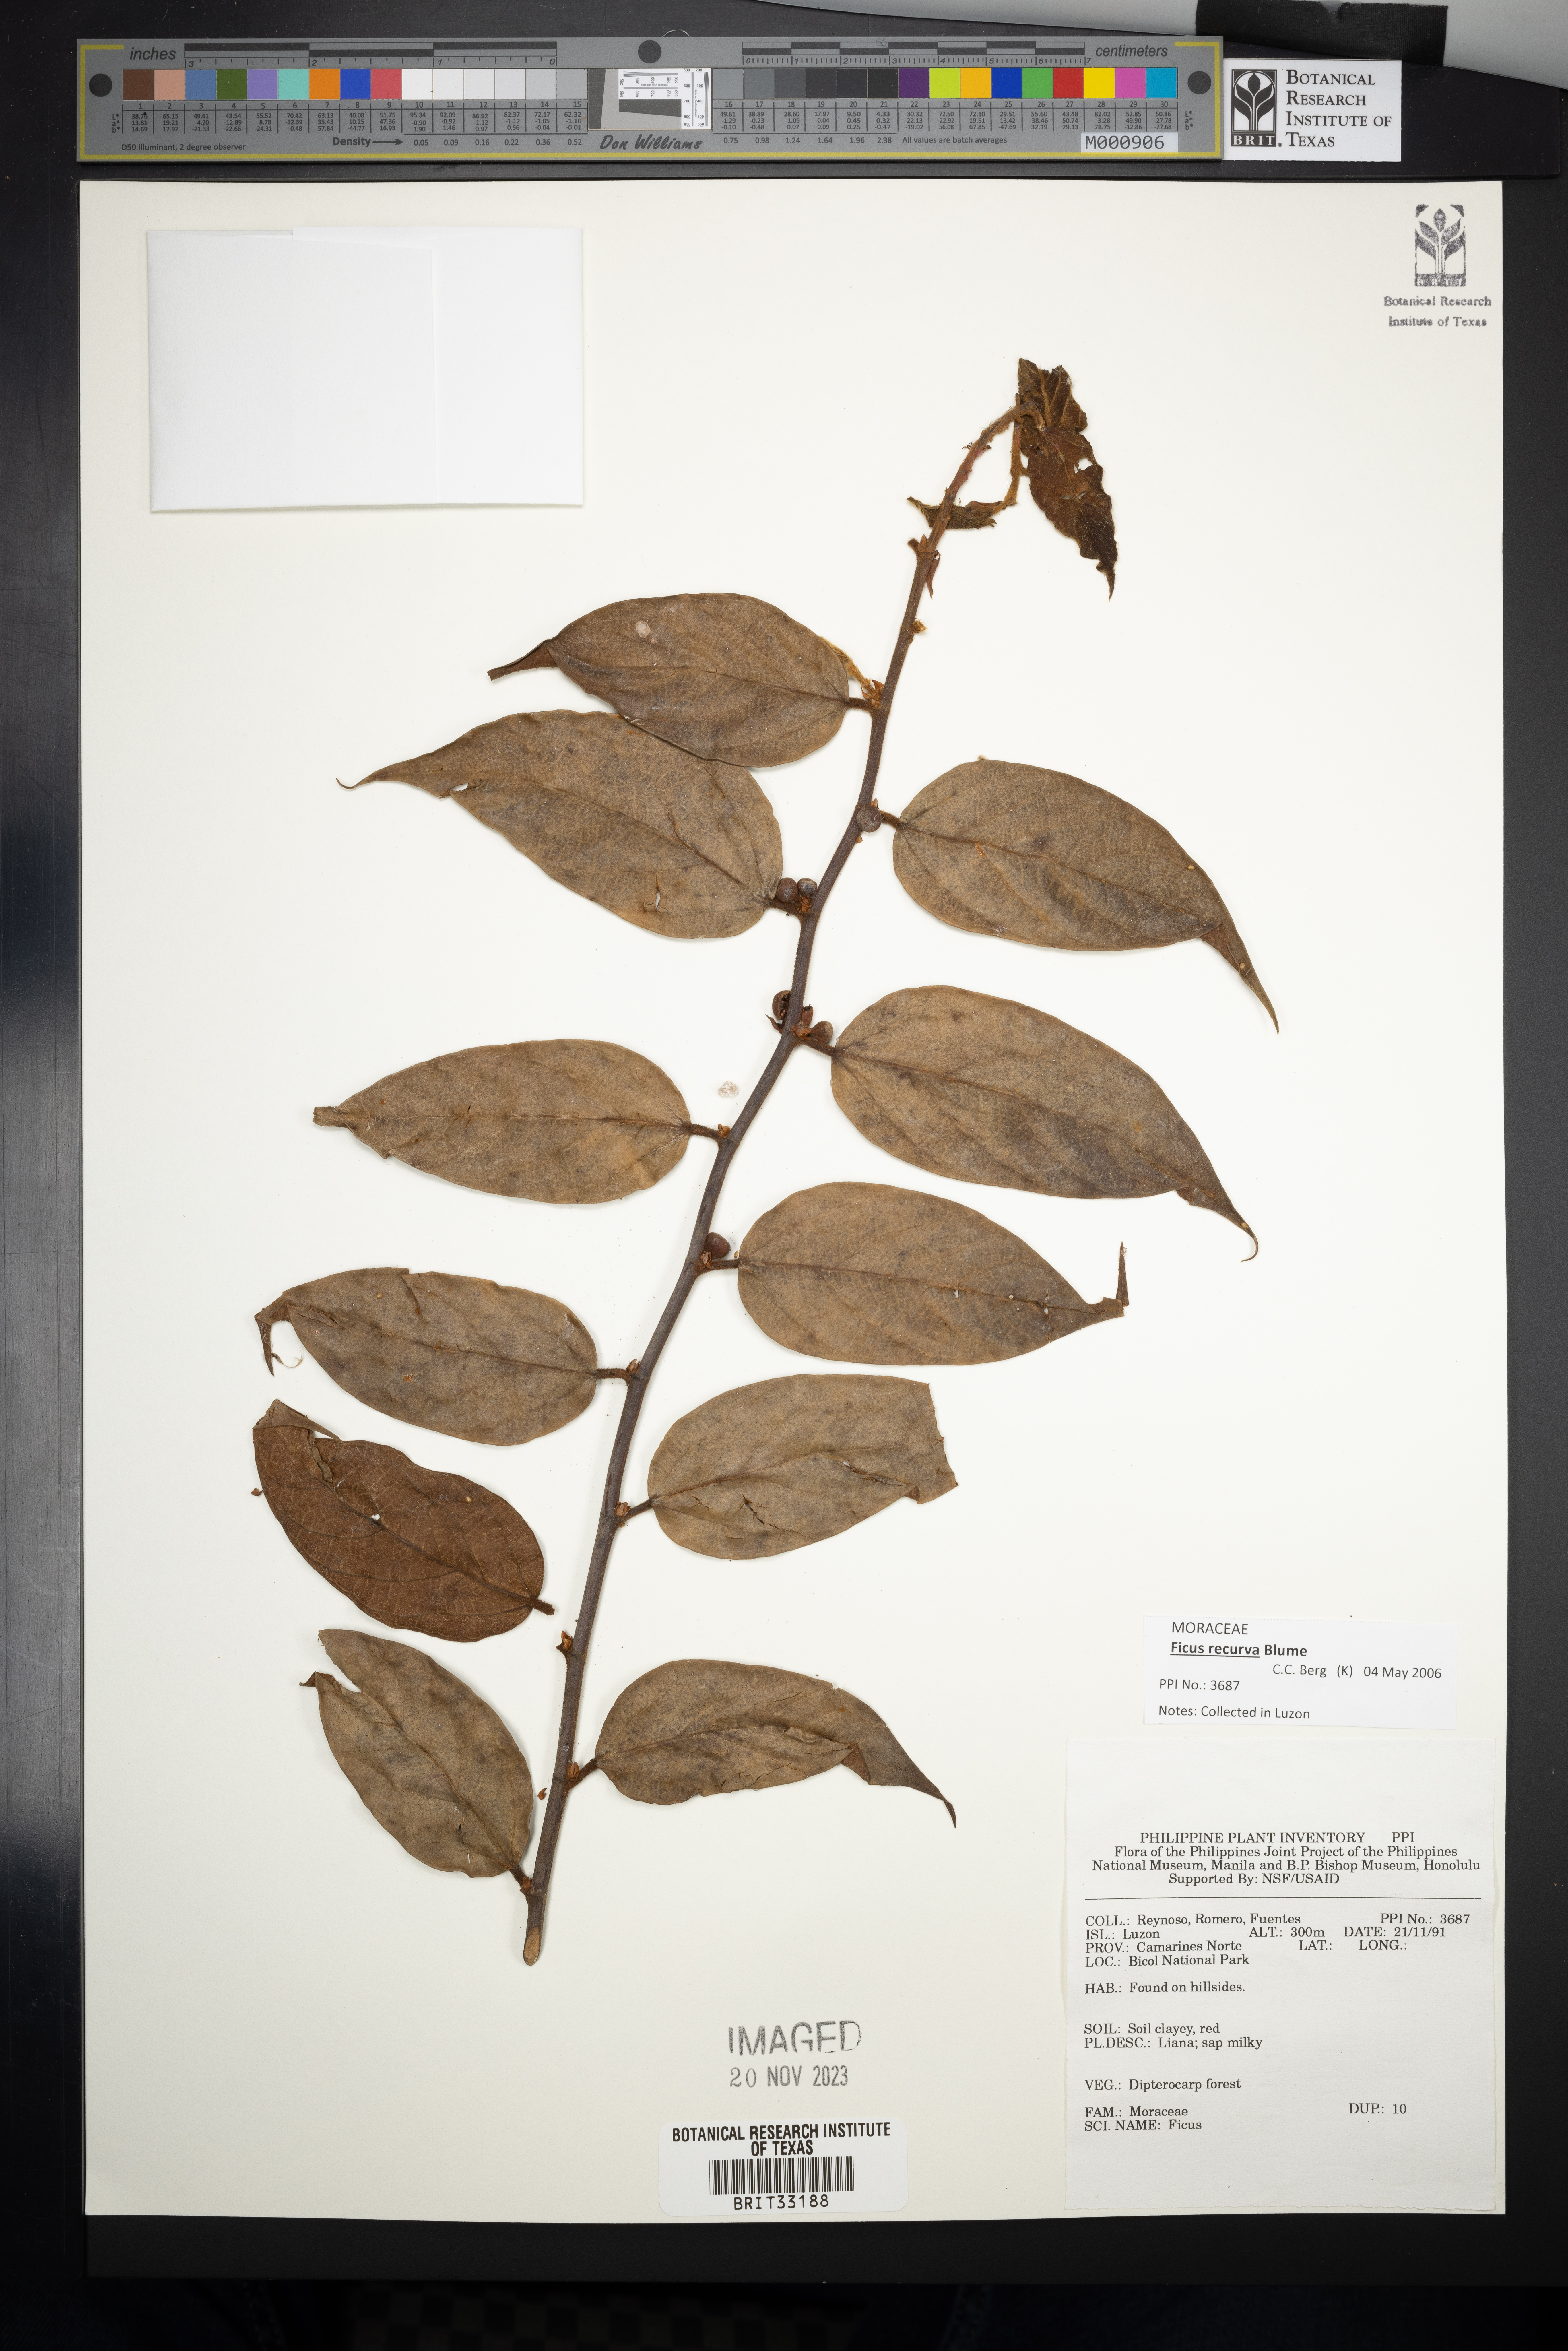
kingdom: Plantae
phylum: Tracheophyta
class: Magnoliopsida
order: Rosales
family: Moraceae
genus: Ficus
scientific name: Ficus
